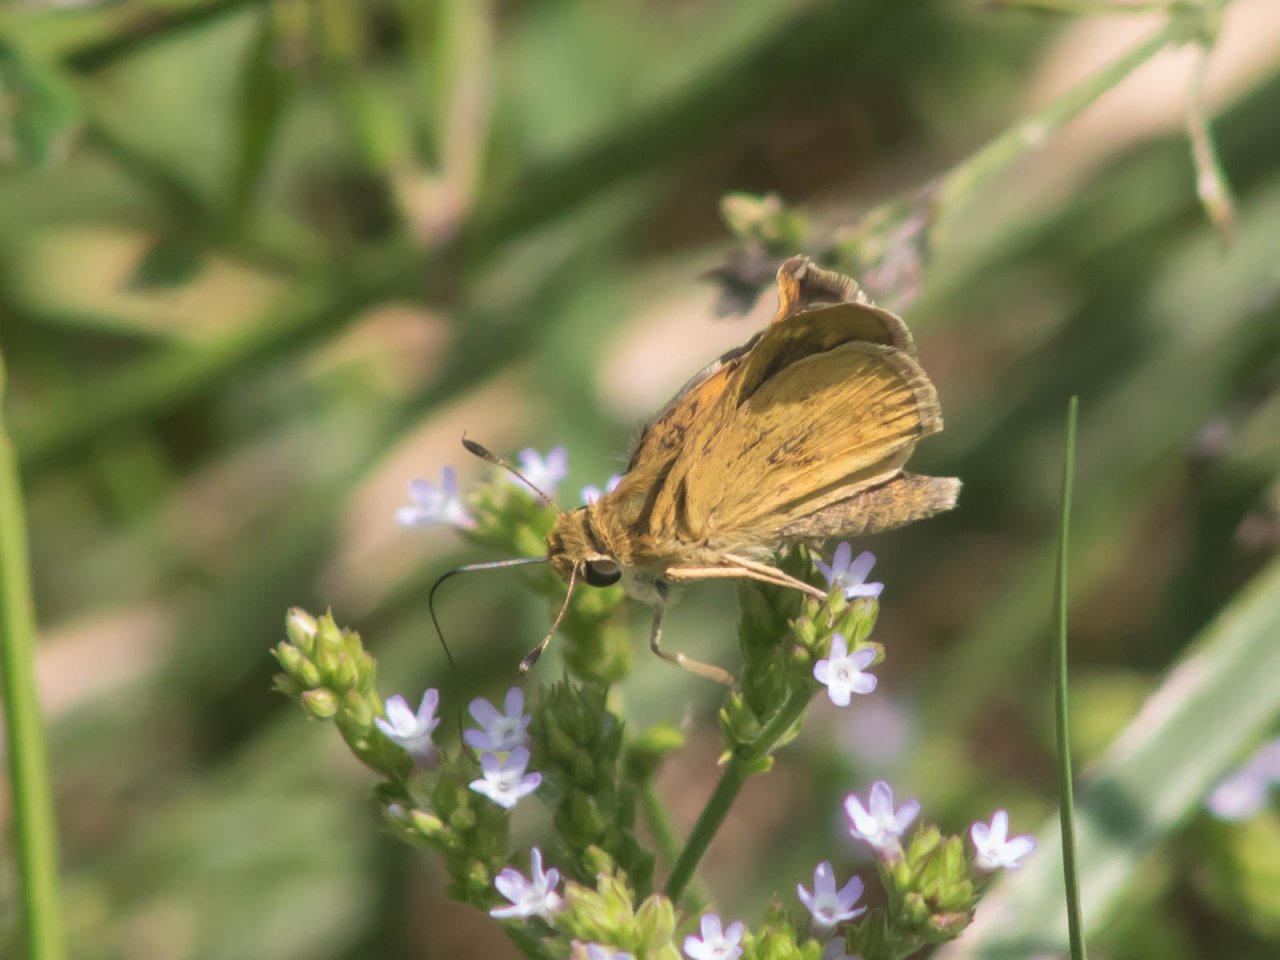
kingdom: Animalia
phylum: Arthropoda
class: Insecta
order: Lepidoptera
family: Hesperiidae
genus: Wallengrenia
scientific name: Wallengrenia otho
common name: Southern Broken-Dash
